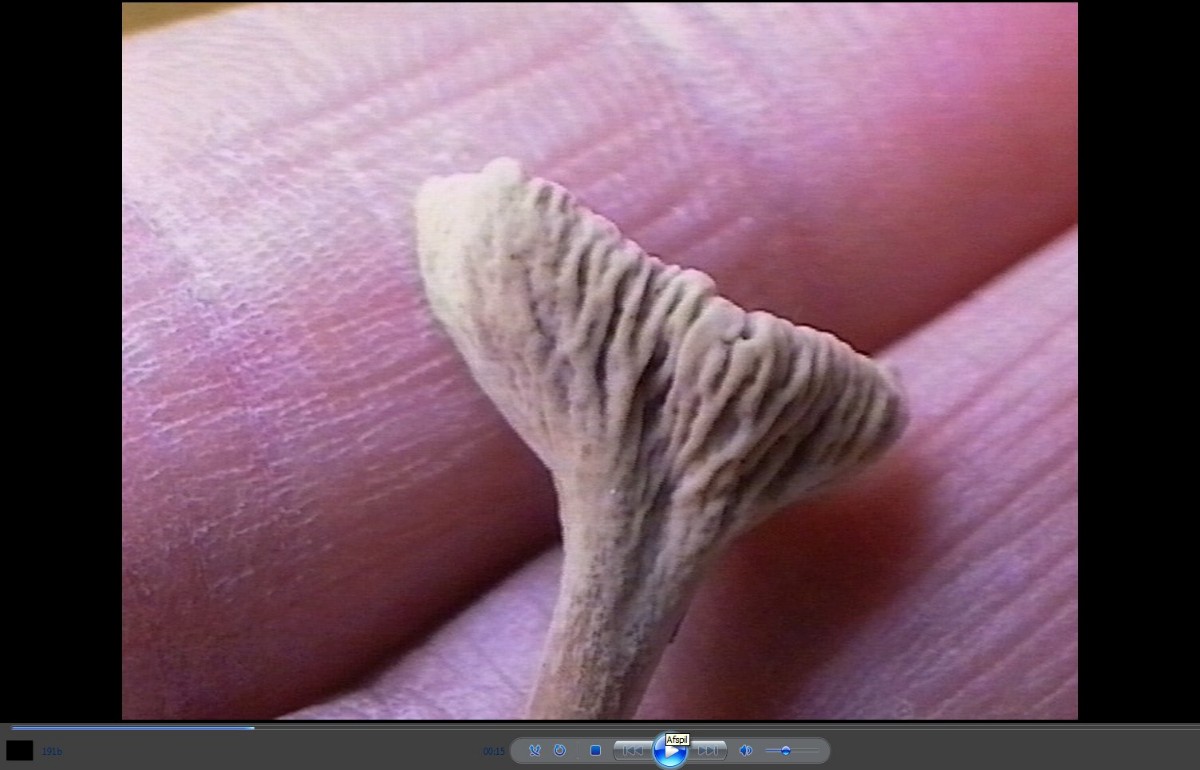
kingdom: Fungi
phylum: Basidiomycota
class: Agaricomycetes
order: Cantharellales
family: Hydnaceae
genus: Craterellus
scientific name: Craterellus undulatus
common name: liden kantarel
